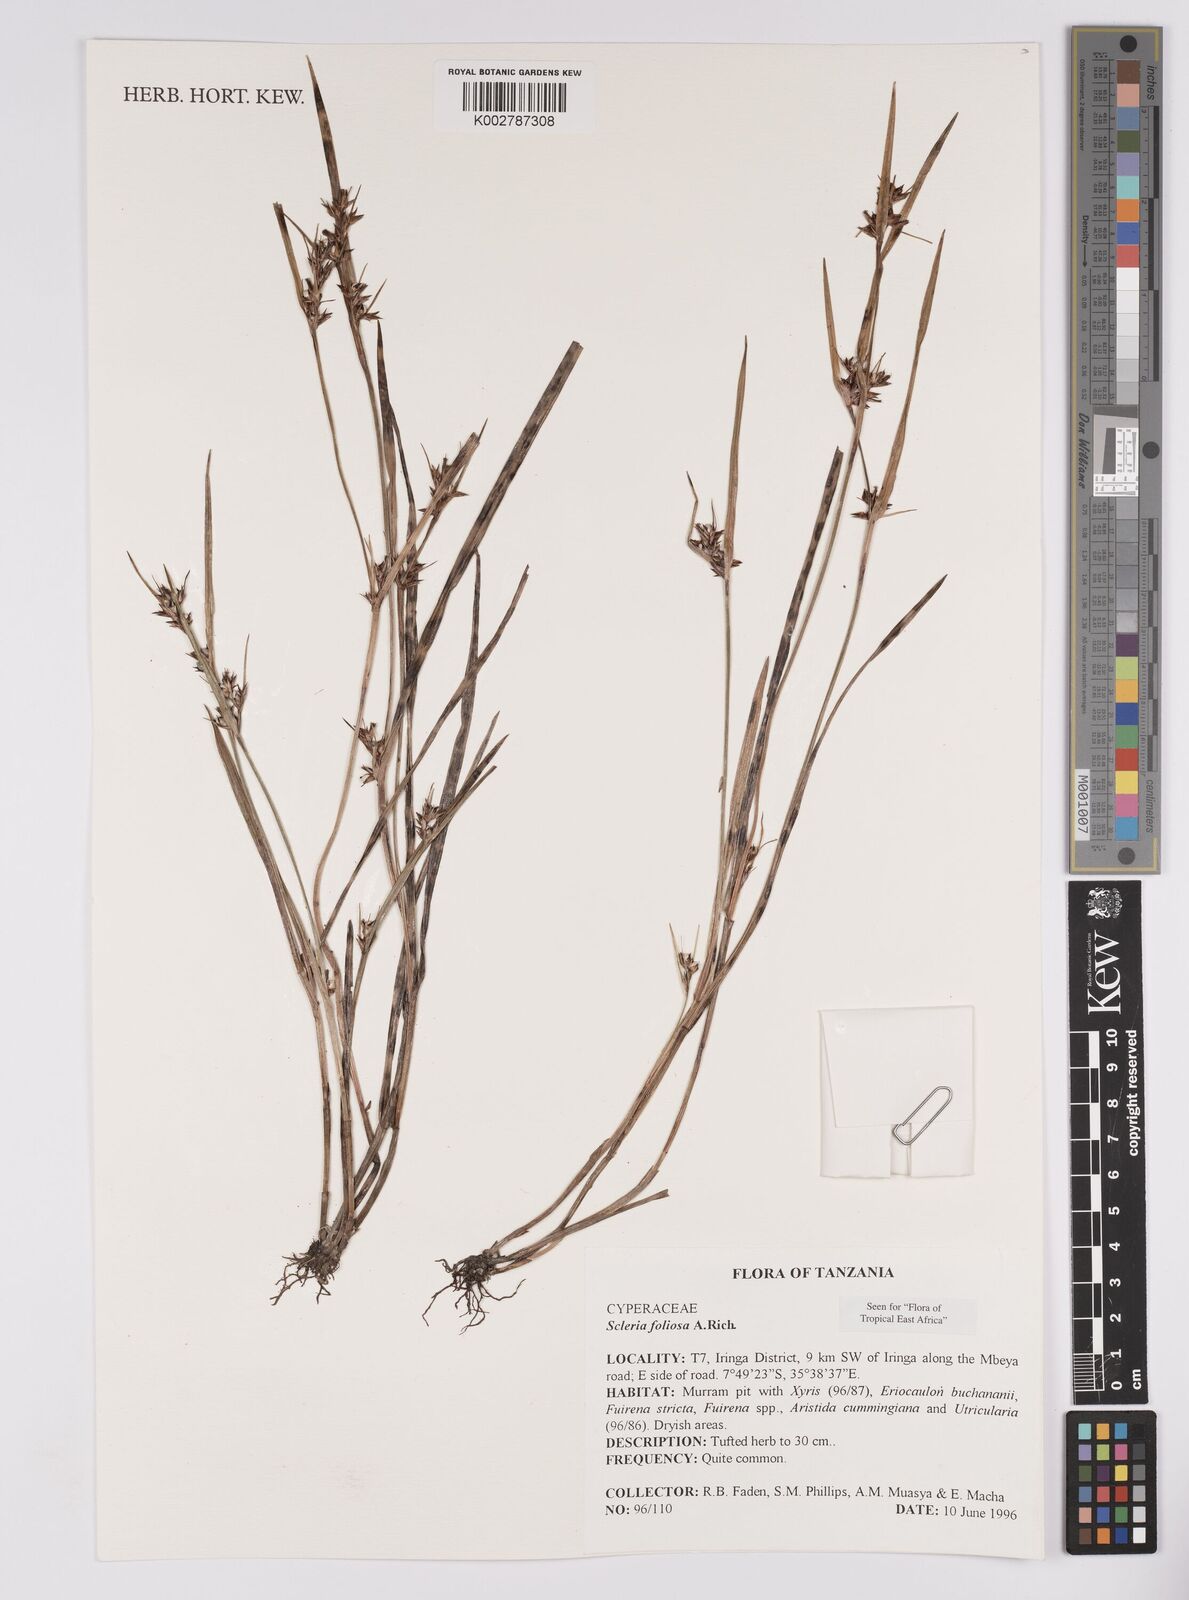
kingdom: Plantae
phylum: Tracheophyta
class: Liliopsida
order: Poales
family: Cyperaceae
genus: Scleria
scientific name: Scleria foliosa
